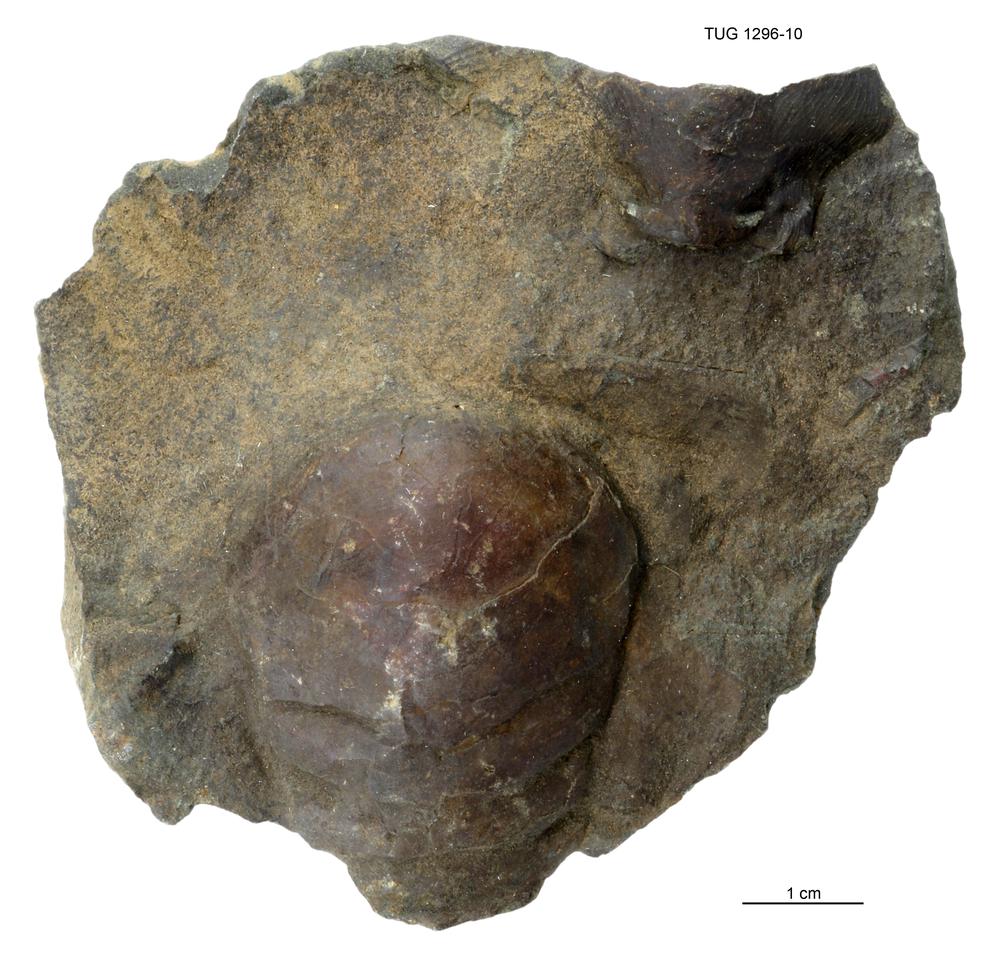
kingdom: Animalia
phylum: Arthropoda
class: Trilobita
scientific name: Trilobita
